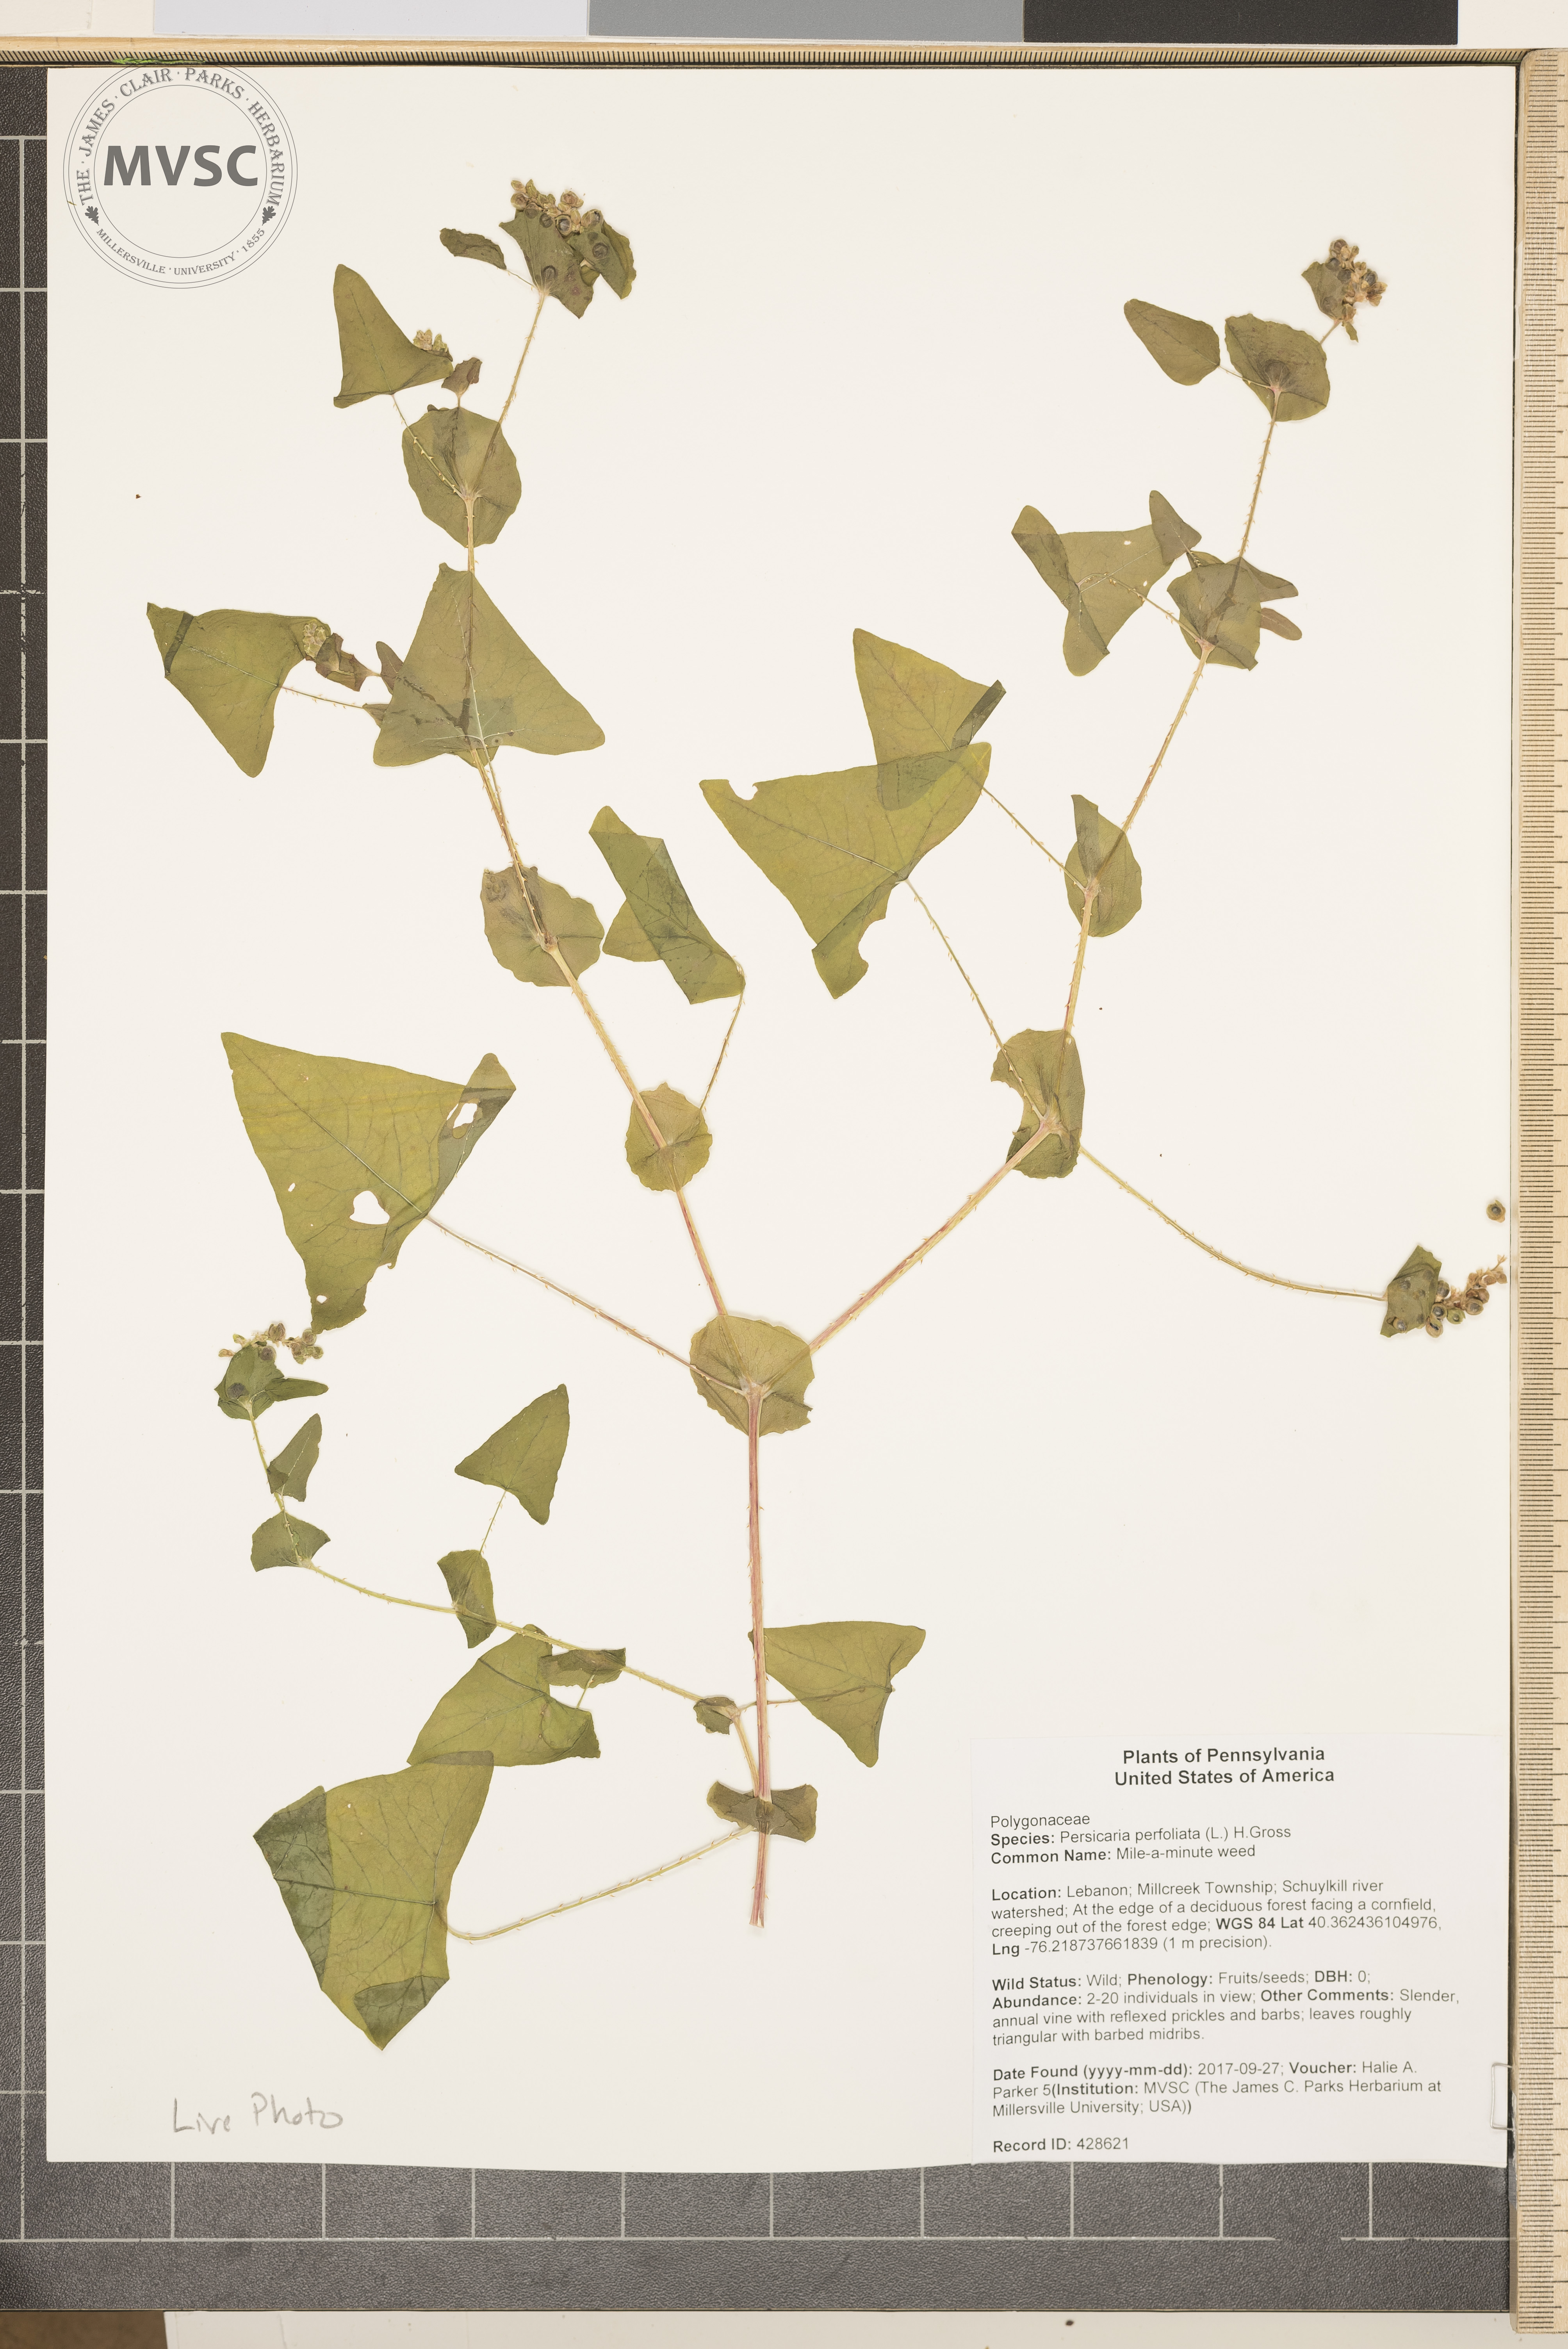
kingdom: Plantae
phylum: Tracheophyta
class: Magnoliopsida
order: Caryophyllales
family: Polygonaceae
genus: Persicaria
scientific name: Persicaria perfoliata
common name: Mile-a-minute weed
